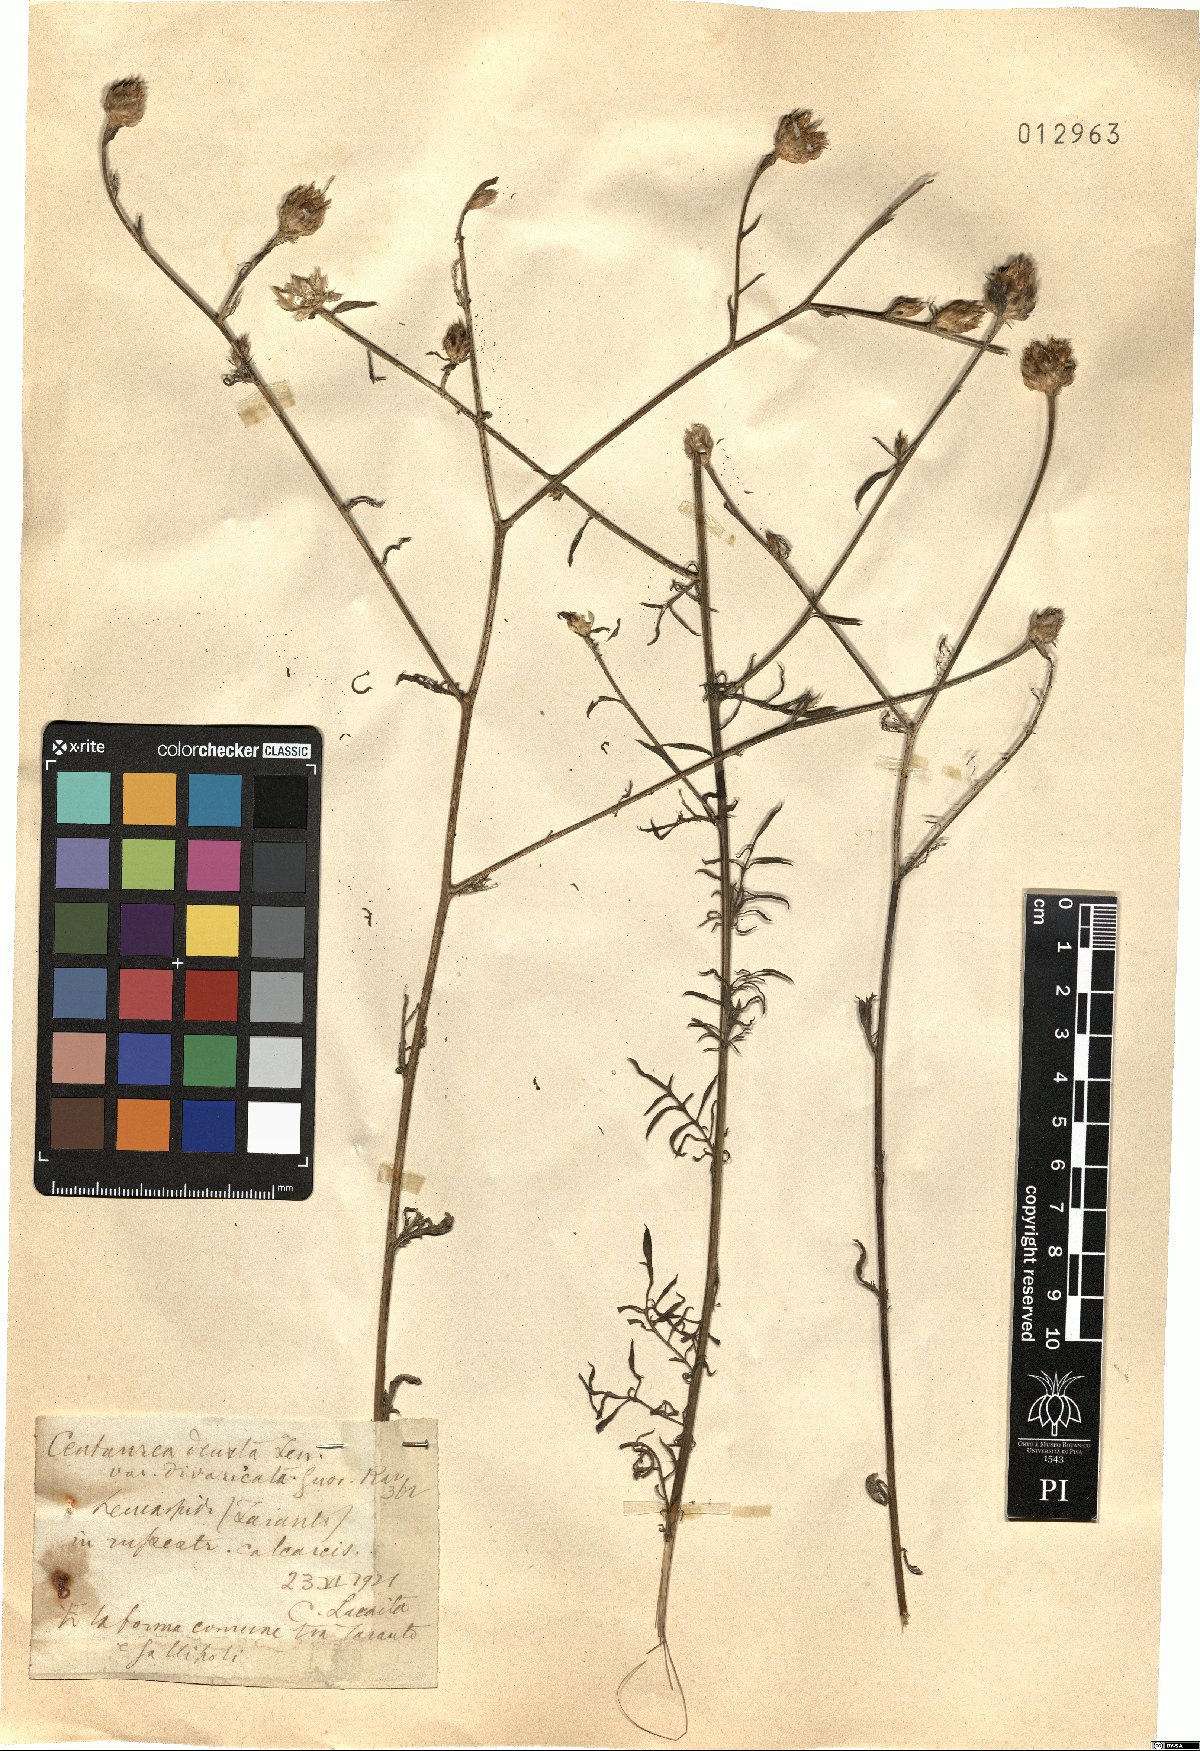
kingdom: Plantae
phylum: Tracheophyta
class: Magnoliopsida
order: Asterales
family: Asteraceae
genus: Centaurea
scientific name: Centaurea deusta
